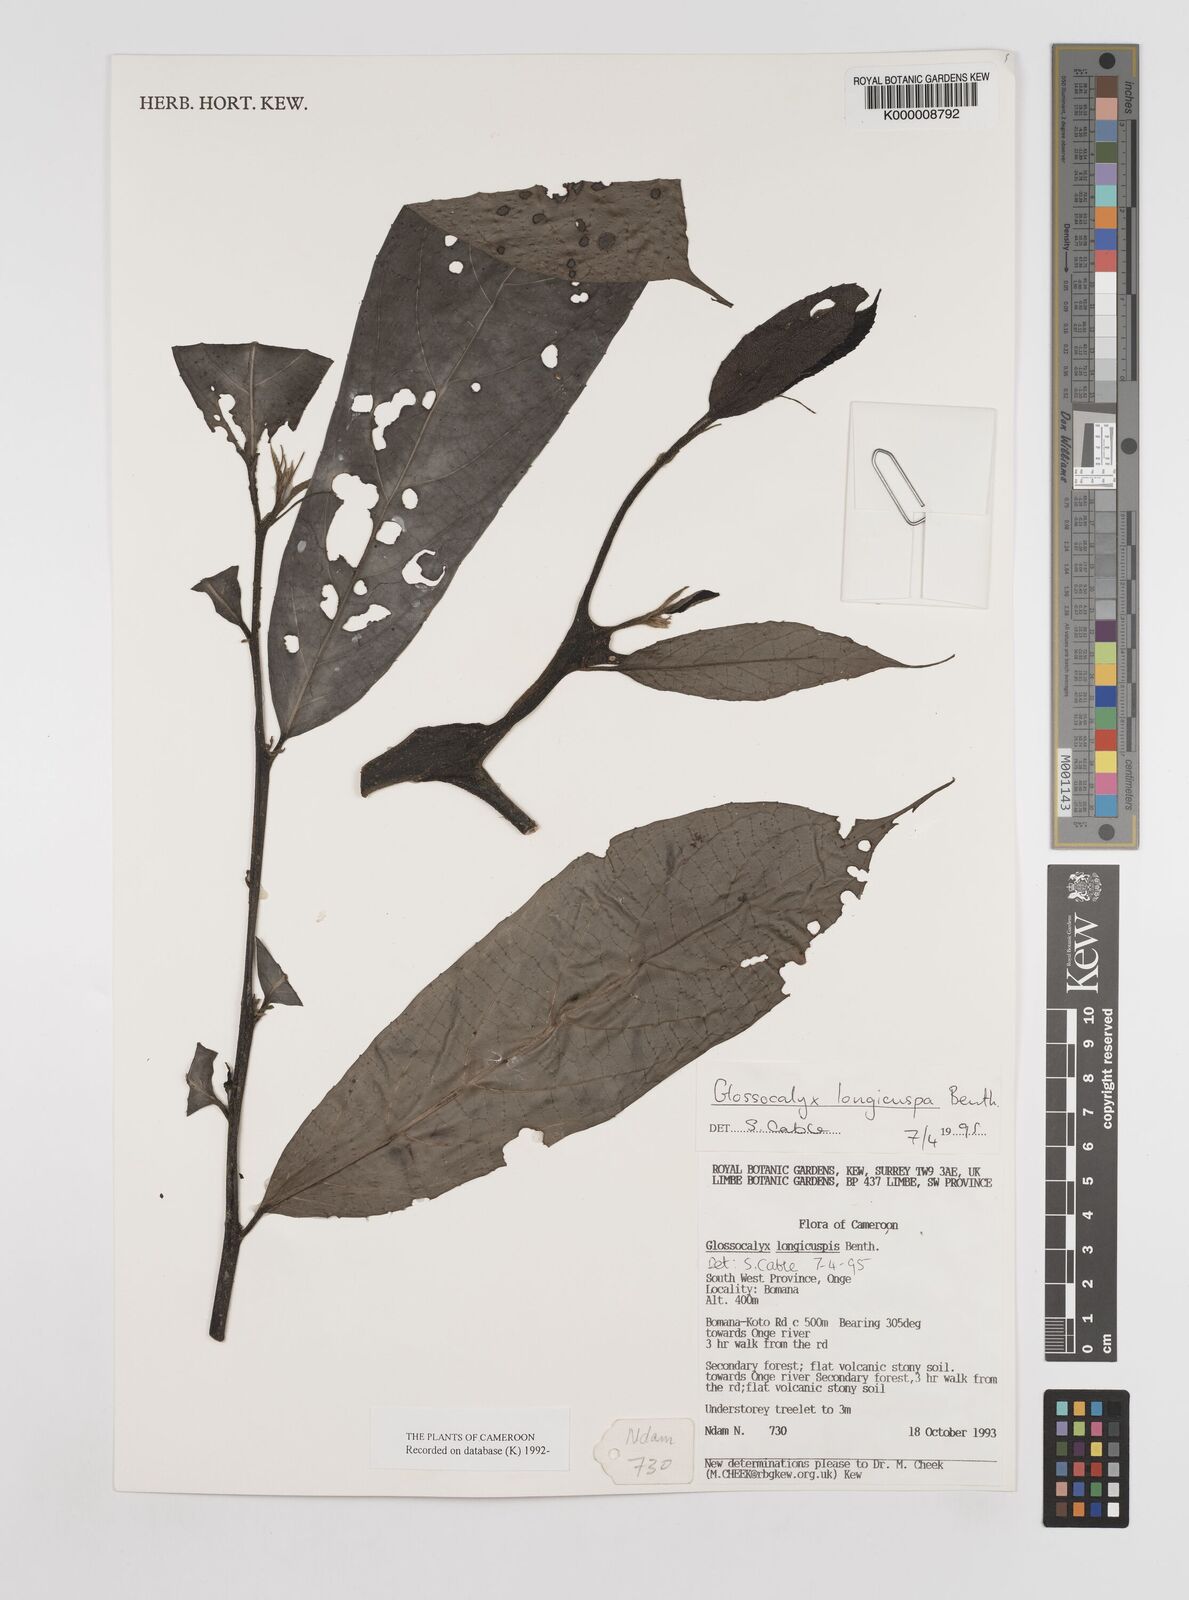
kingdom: Plantae
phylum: Tracheophyta
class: Magnoliopsida
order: Laurales
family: Siparunaceae
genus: Glossocalyx
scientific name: Glossocalyx longicuspis
